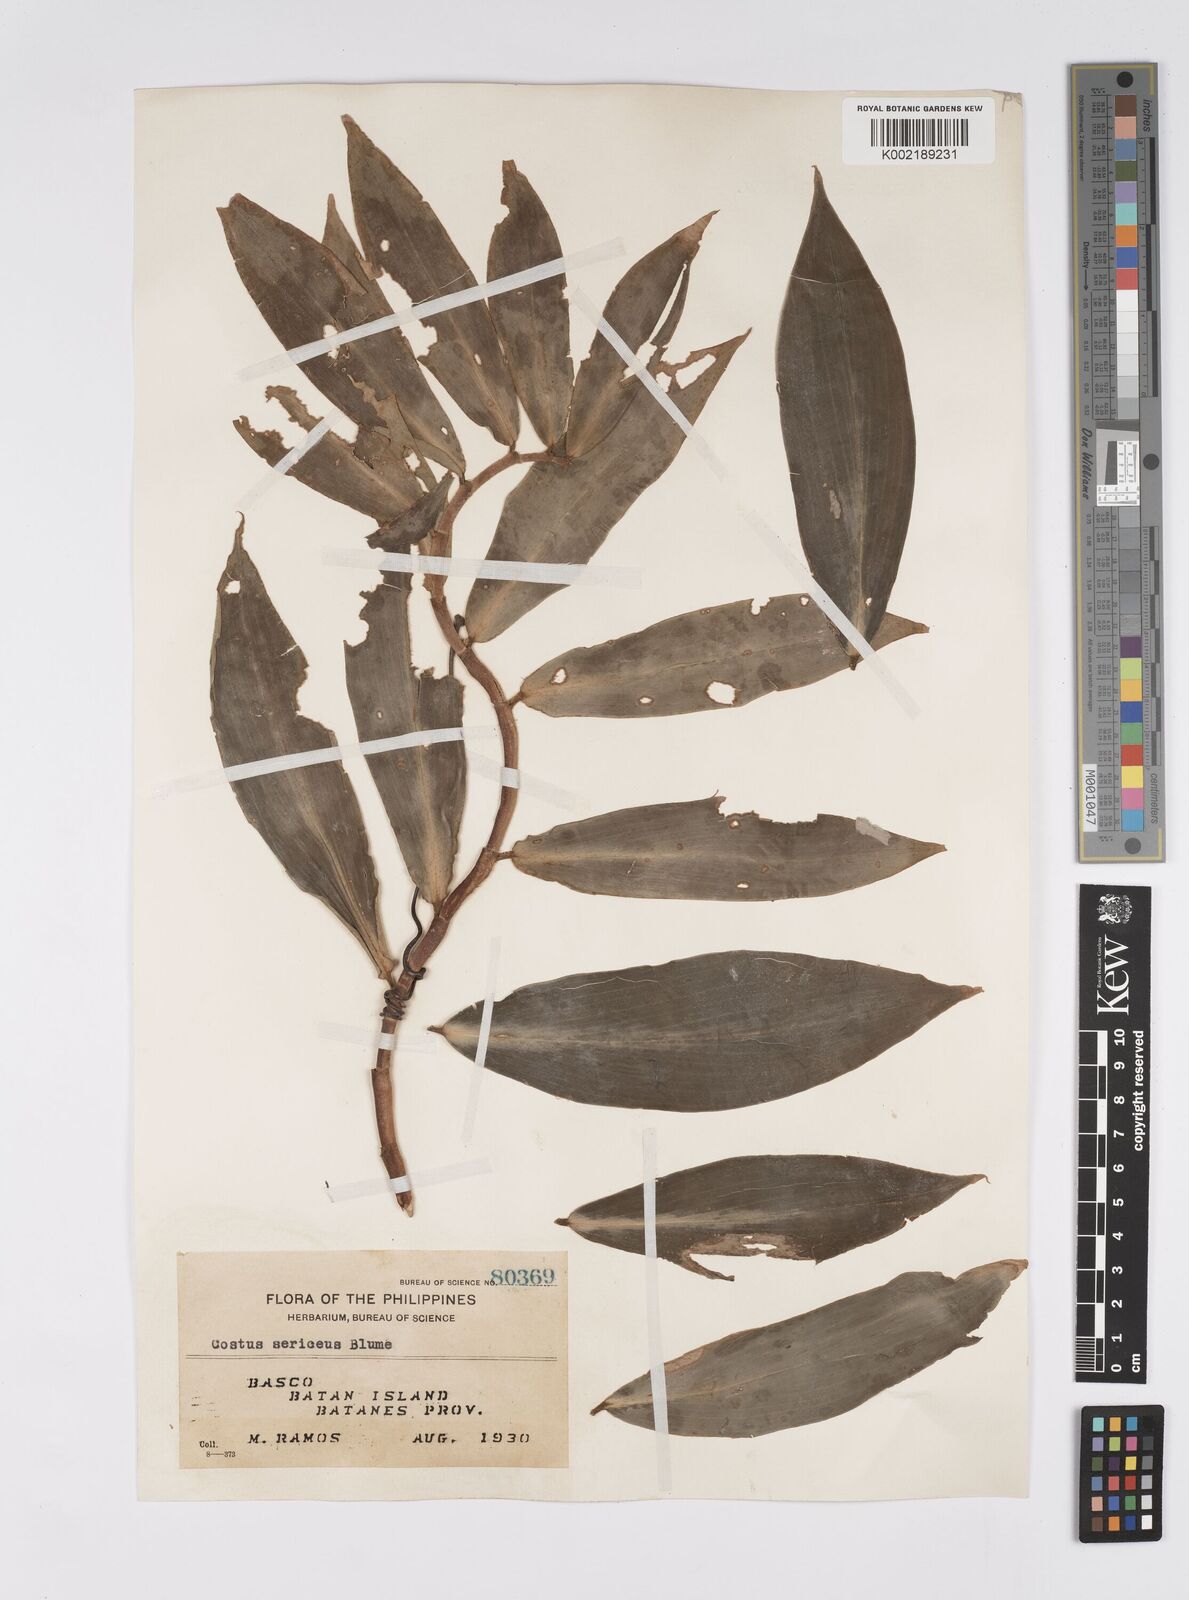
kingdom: Plantae
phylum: Tracheophyta
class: Liliopsida
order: Zingiberales
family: Costaceae
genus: Hellenia
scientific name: Hellenia speciosa
